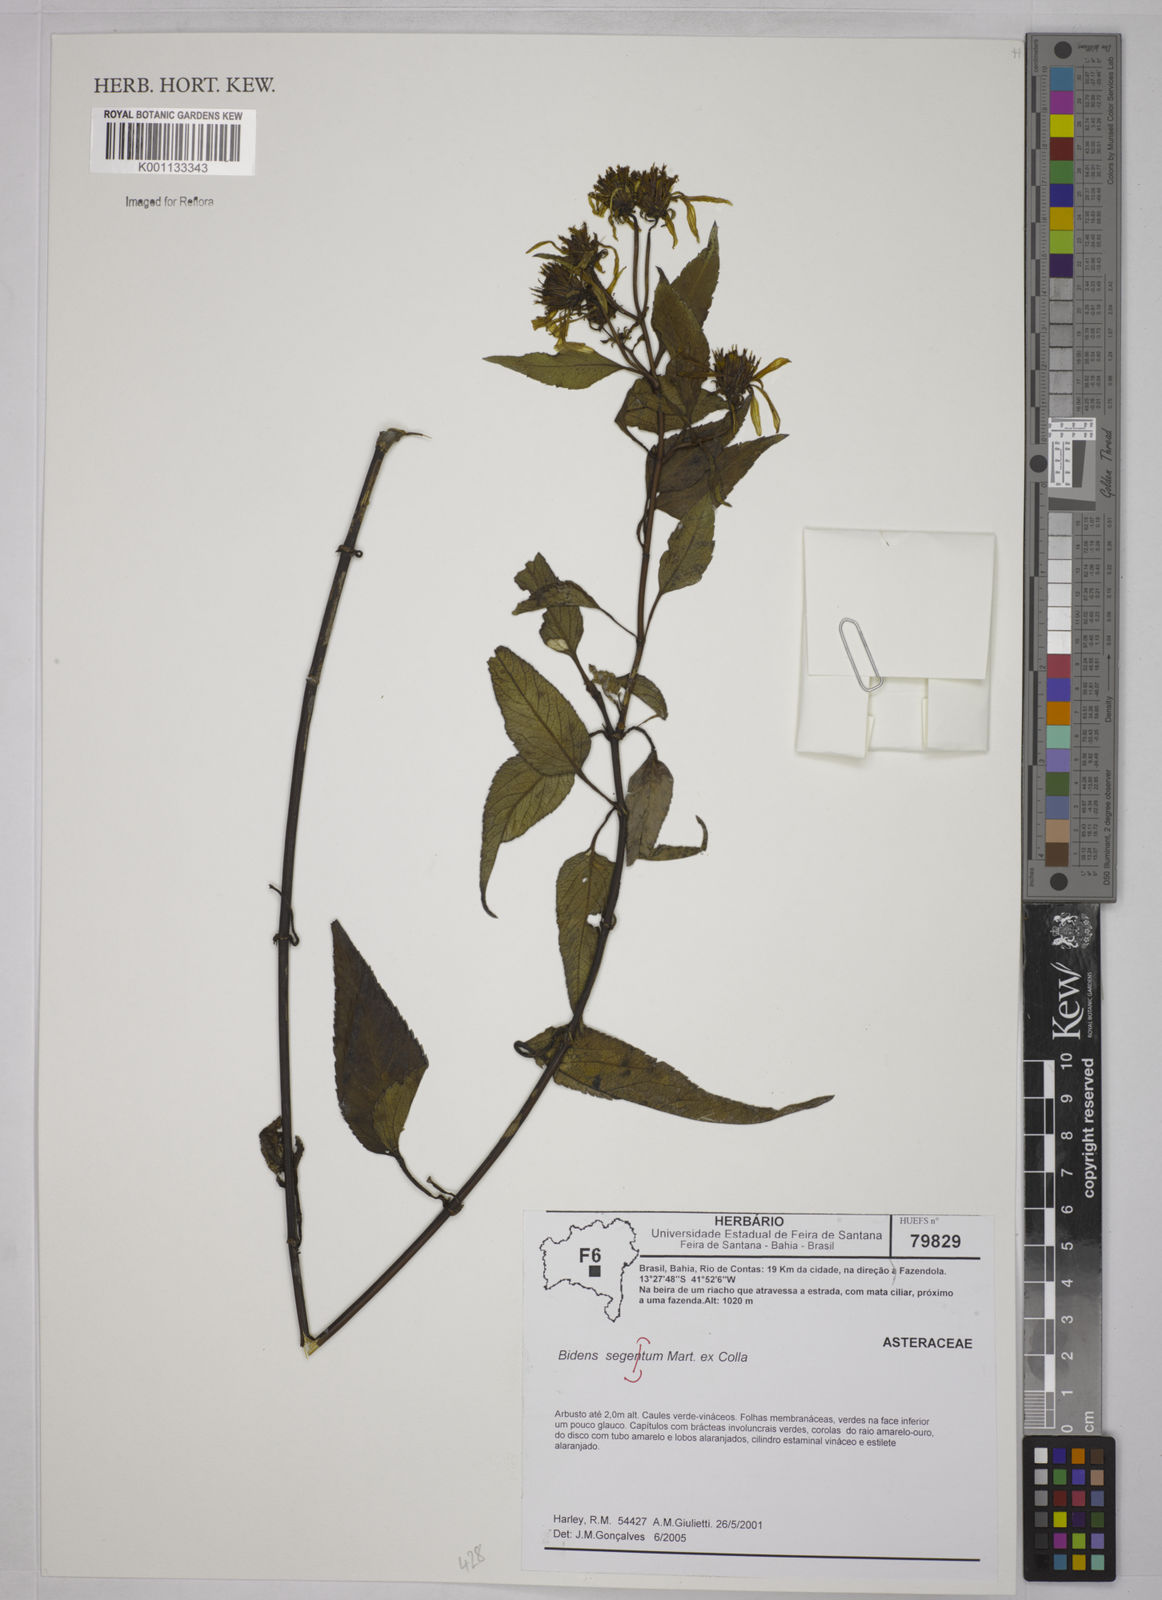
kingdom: Plantae
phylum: Tracheophyta
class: Magnoliopsida
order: Asterales
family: Asteraceae
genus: Bidens
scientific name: Bidens
